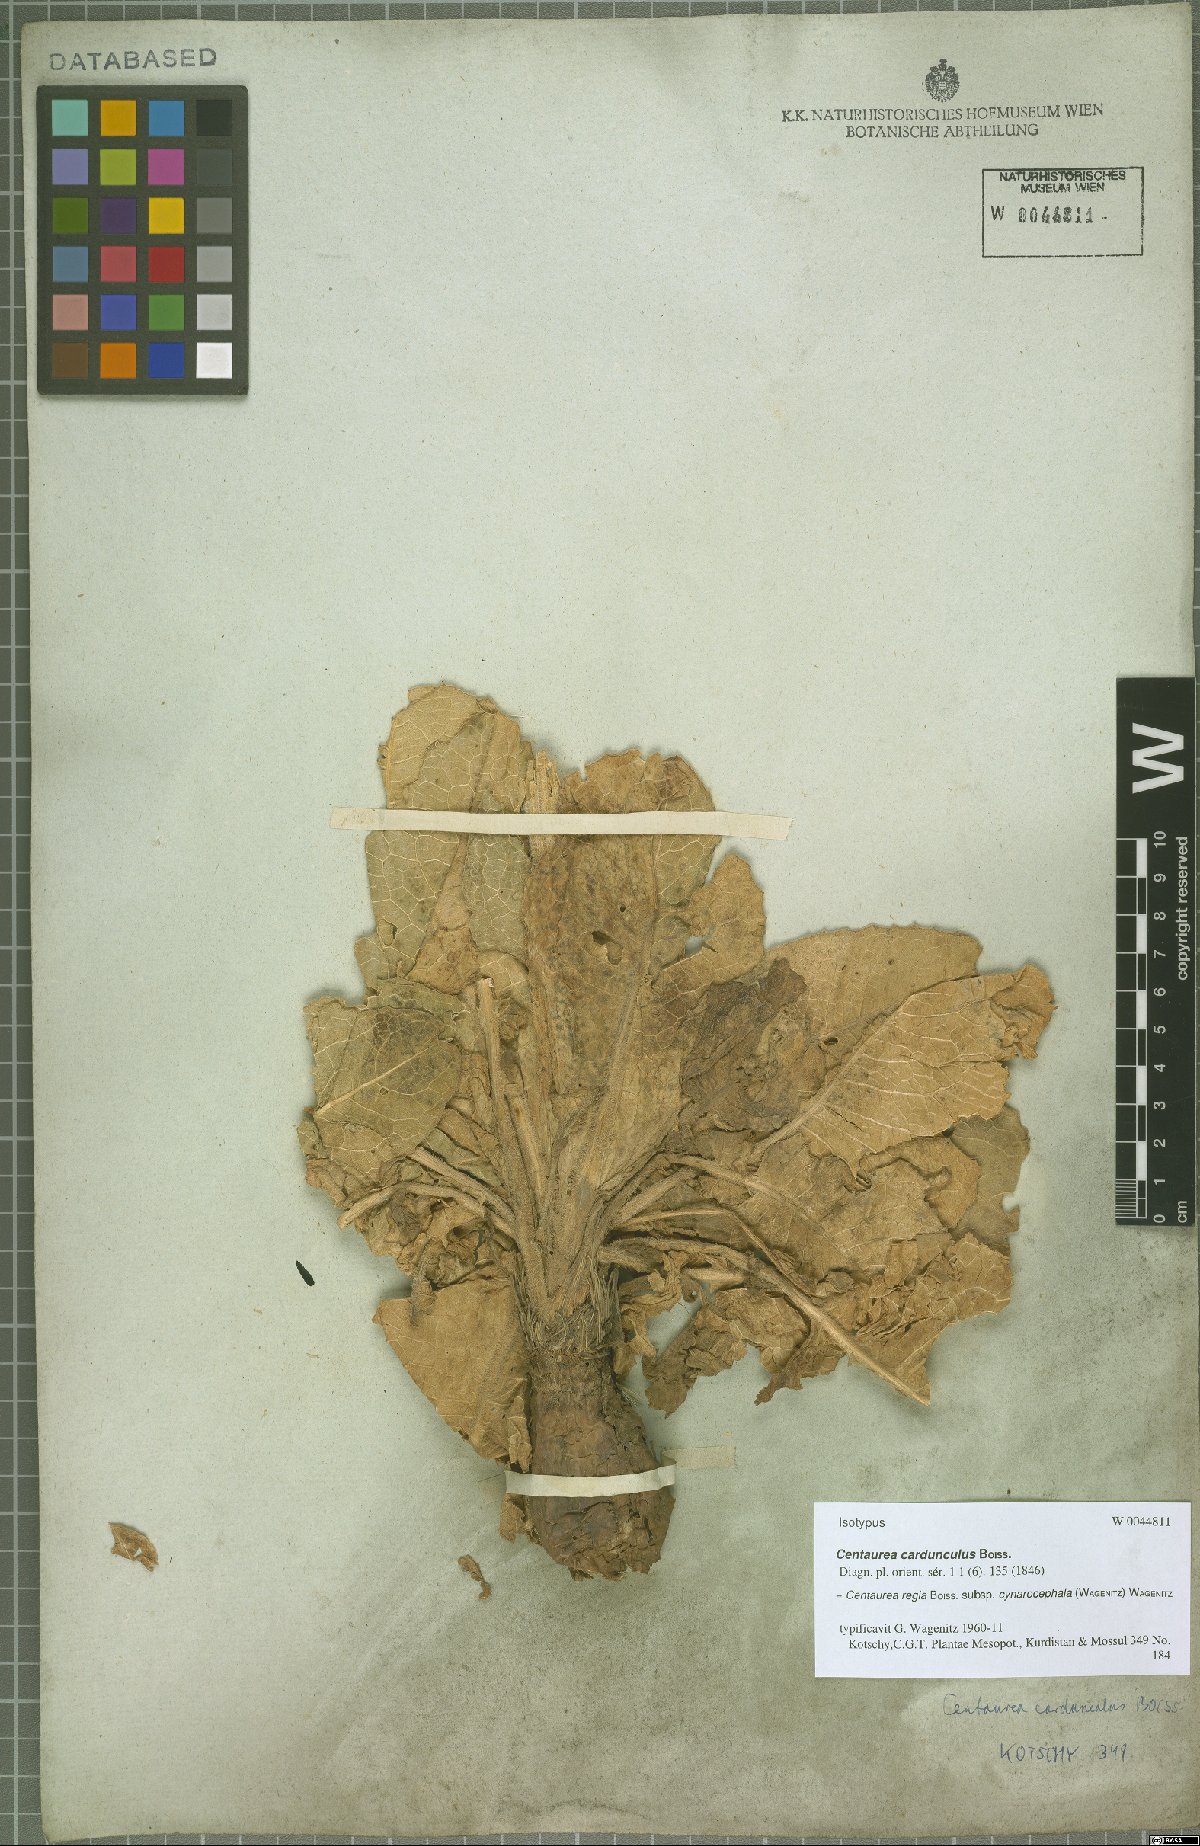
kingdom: Plantae
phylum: Tracheophyta
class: Magnoliopsida
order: Asterales
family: Asteraceae
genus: Centaurea
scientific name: Centaurea regia
